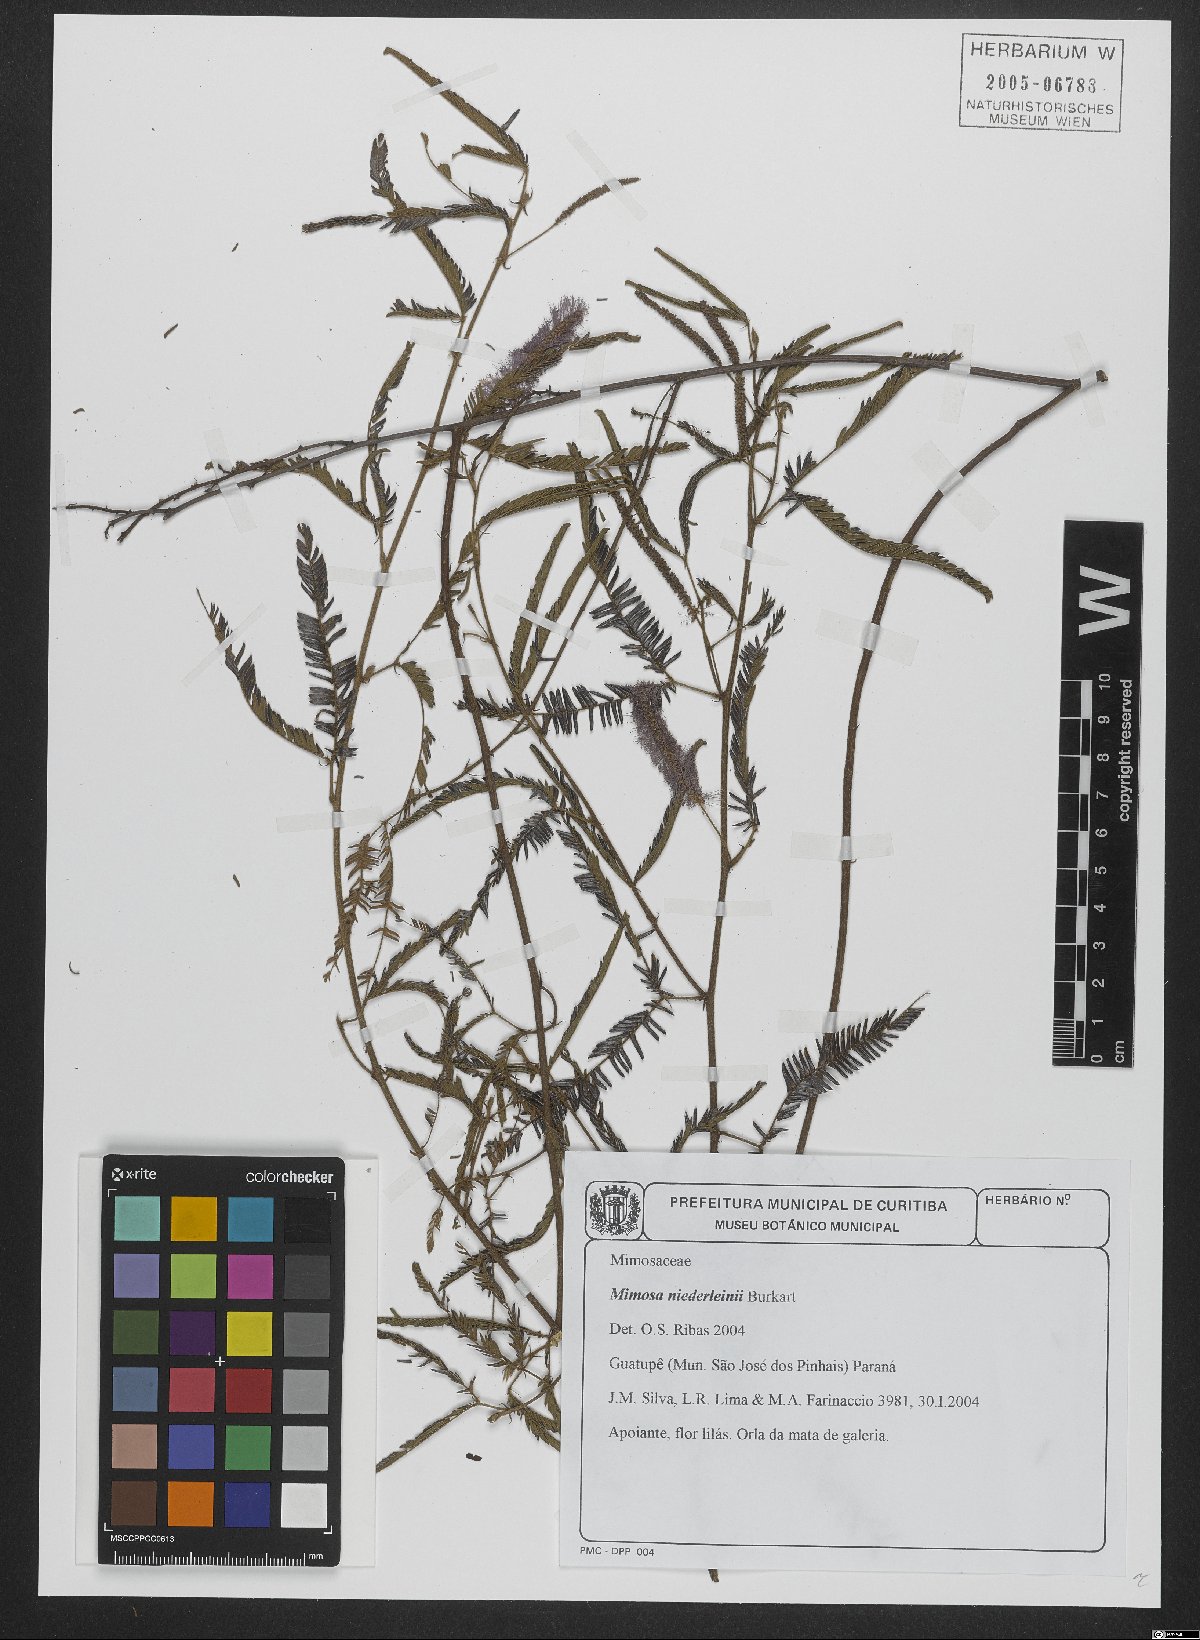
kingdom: Plantae
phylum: Tracheophyta
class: Magnoliopsida
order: Fabales
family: Fabaceae
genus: Mimosa
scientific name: Mimosa niederleinii
